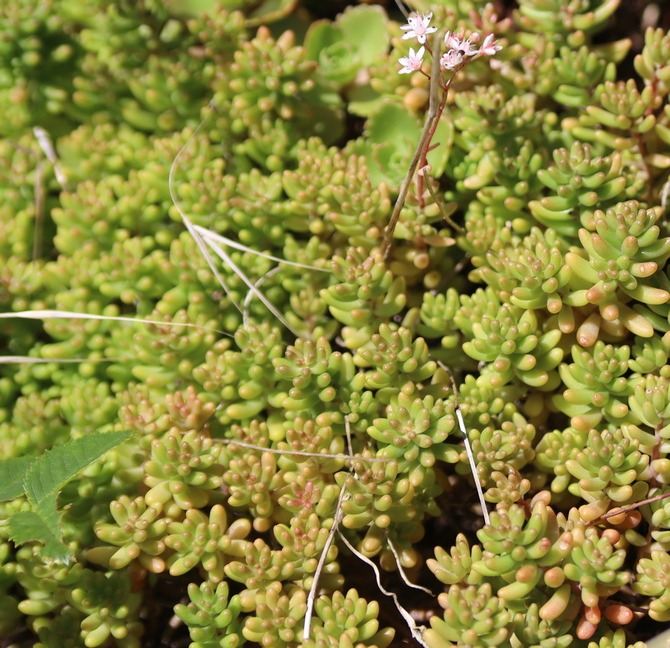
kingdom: Plantae
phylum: Tracheophyta
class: Magnoliopsida
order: Saxifragales
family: Crassulaceae
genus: Sedum
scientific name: Sedum album
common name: Hvid stenurt
